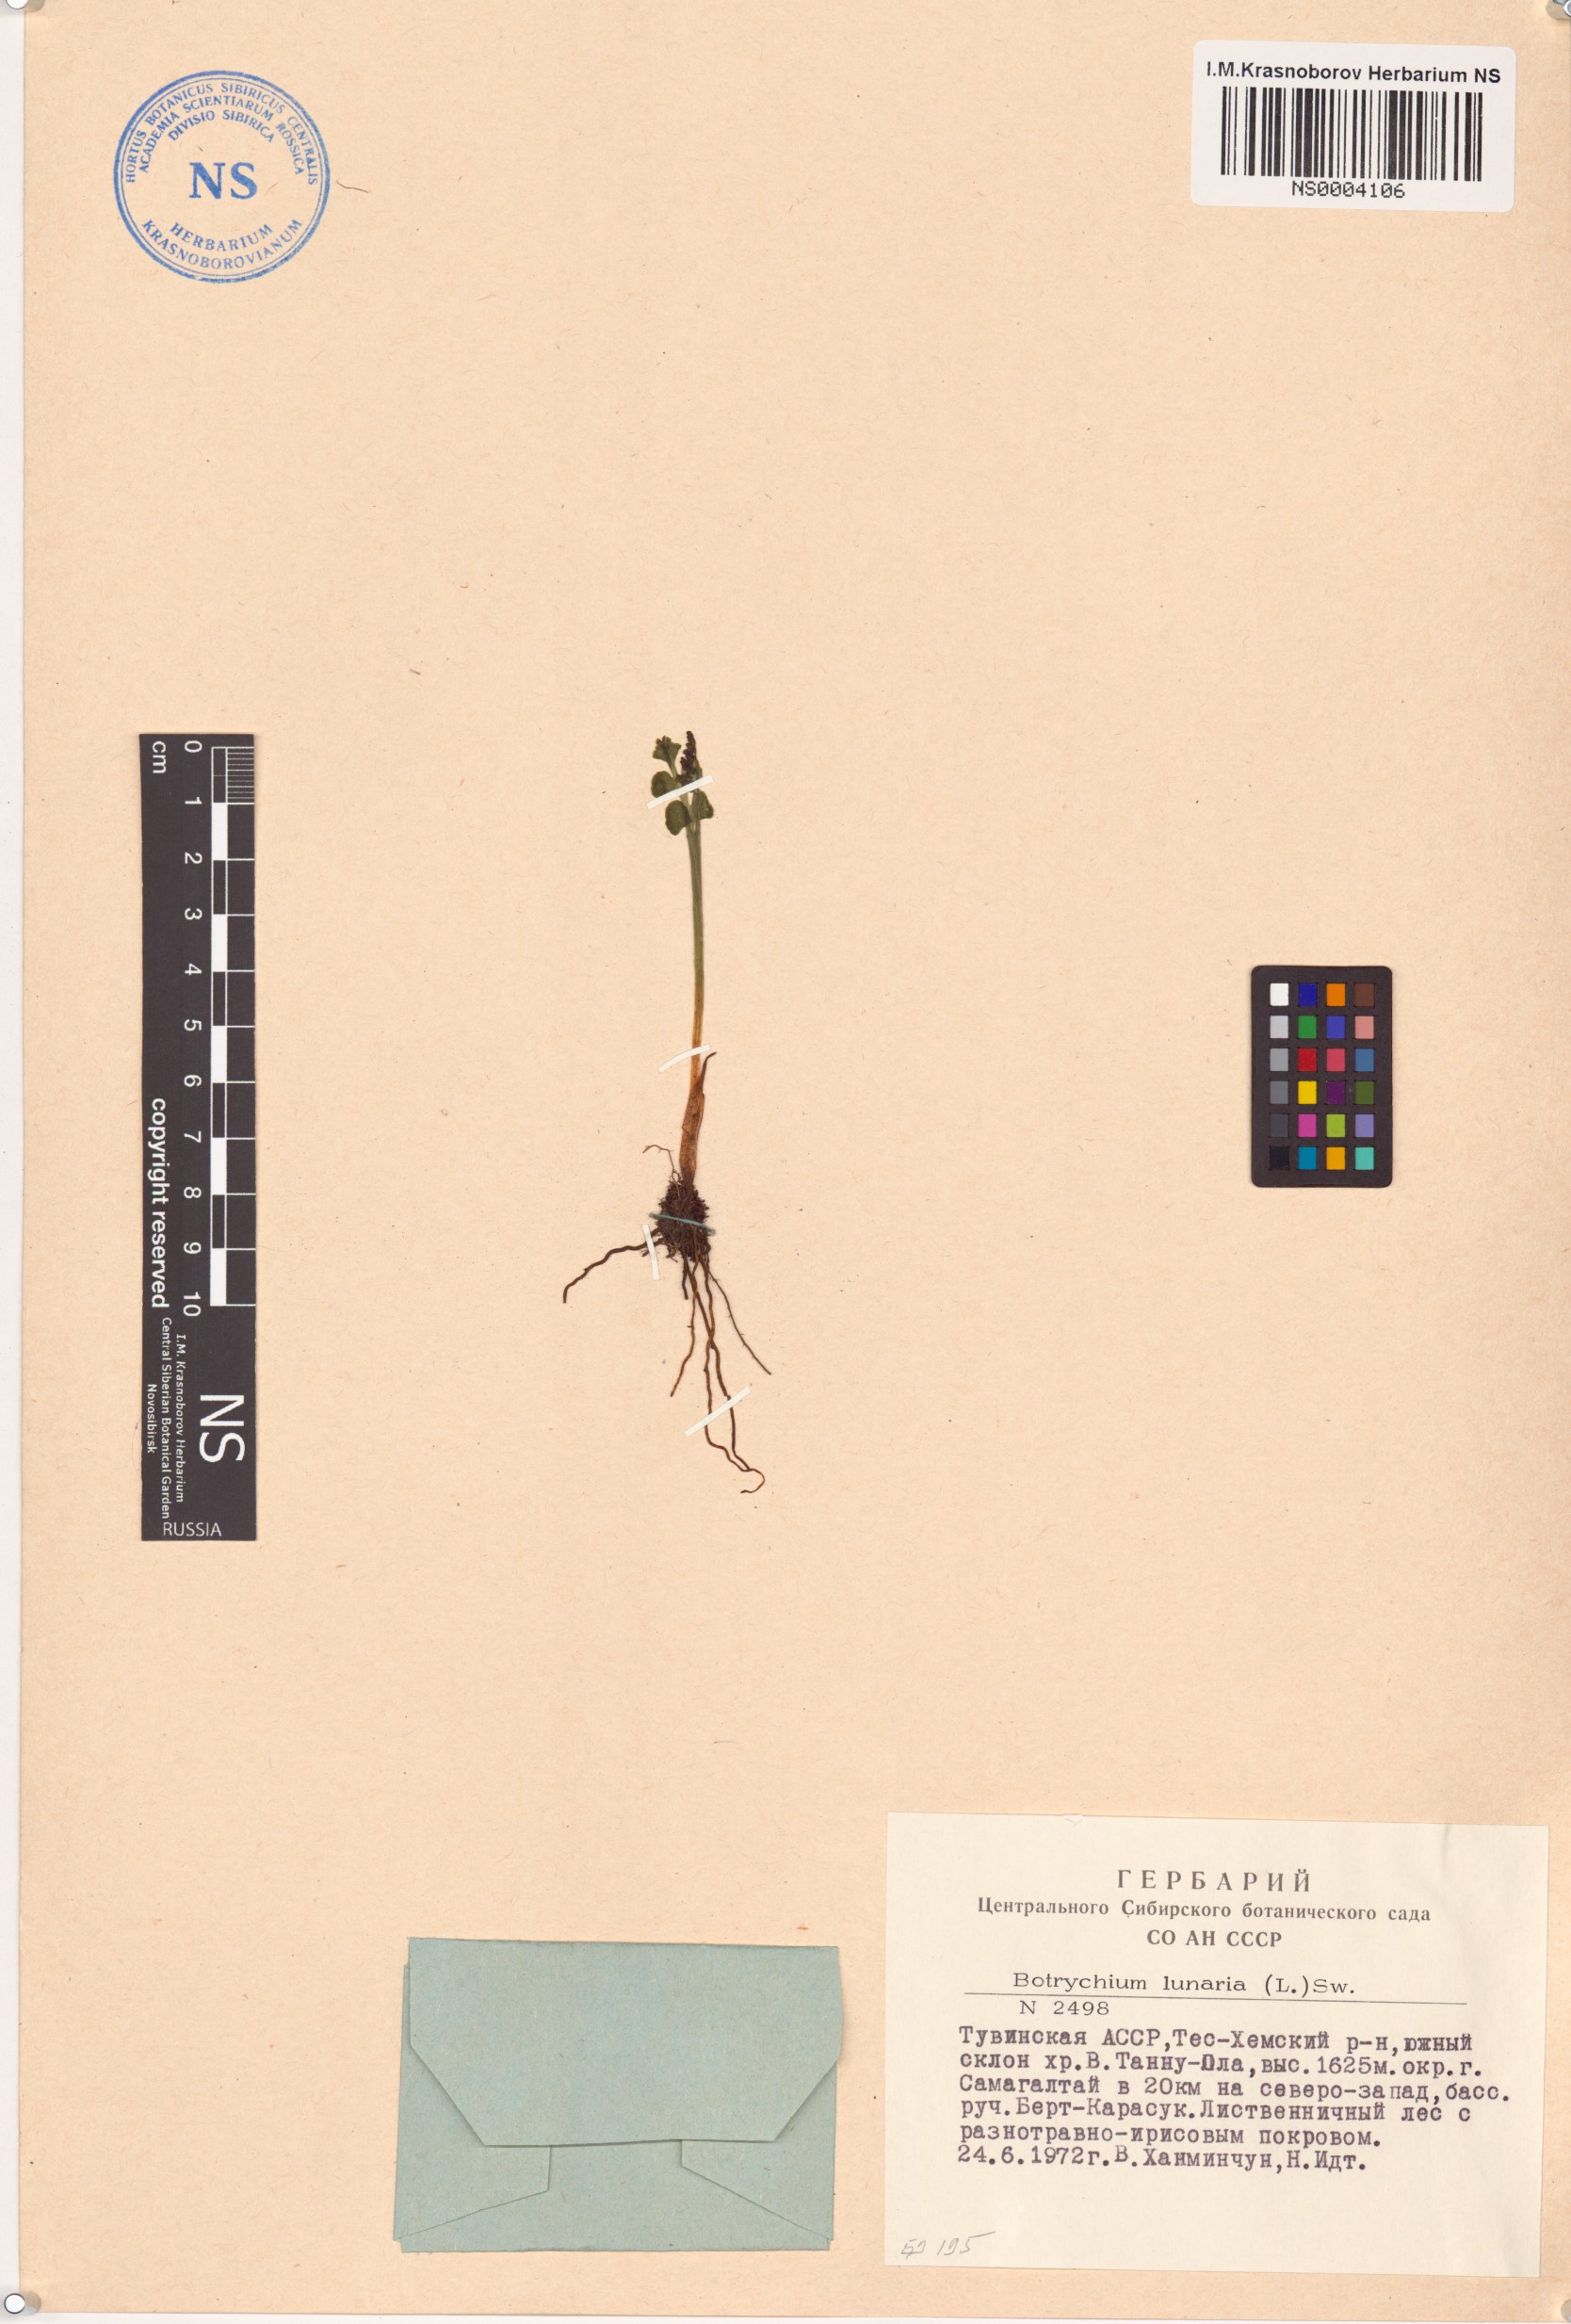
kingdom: Plantae
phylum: Tracheophyta
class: Polypodiopsida
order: Ophioglossales
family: Ophioglossaceae
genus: Botrychium
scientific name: Botrychium lunaria
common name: Moonwort
